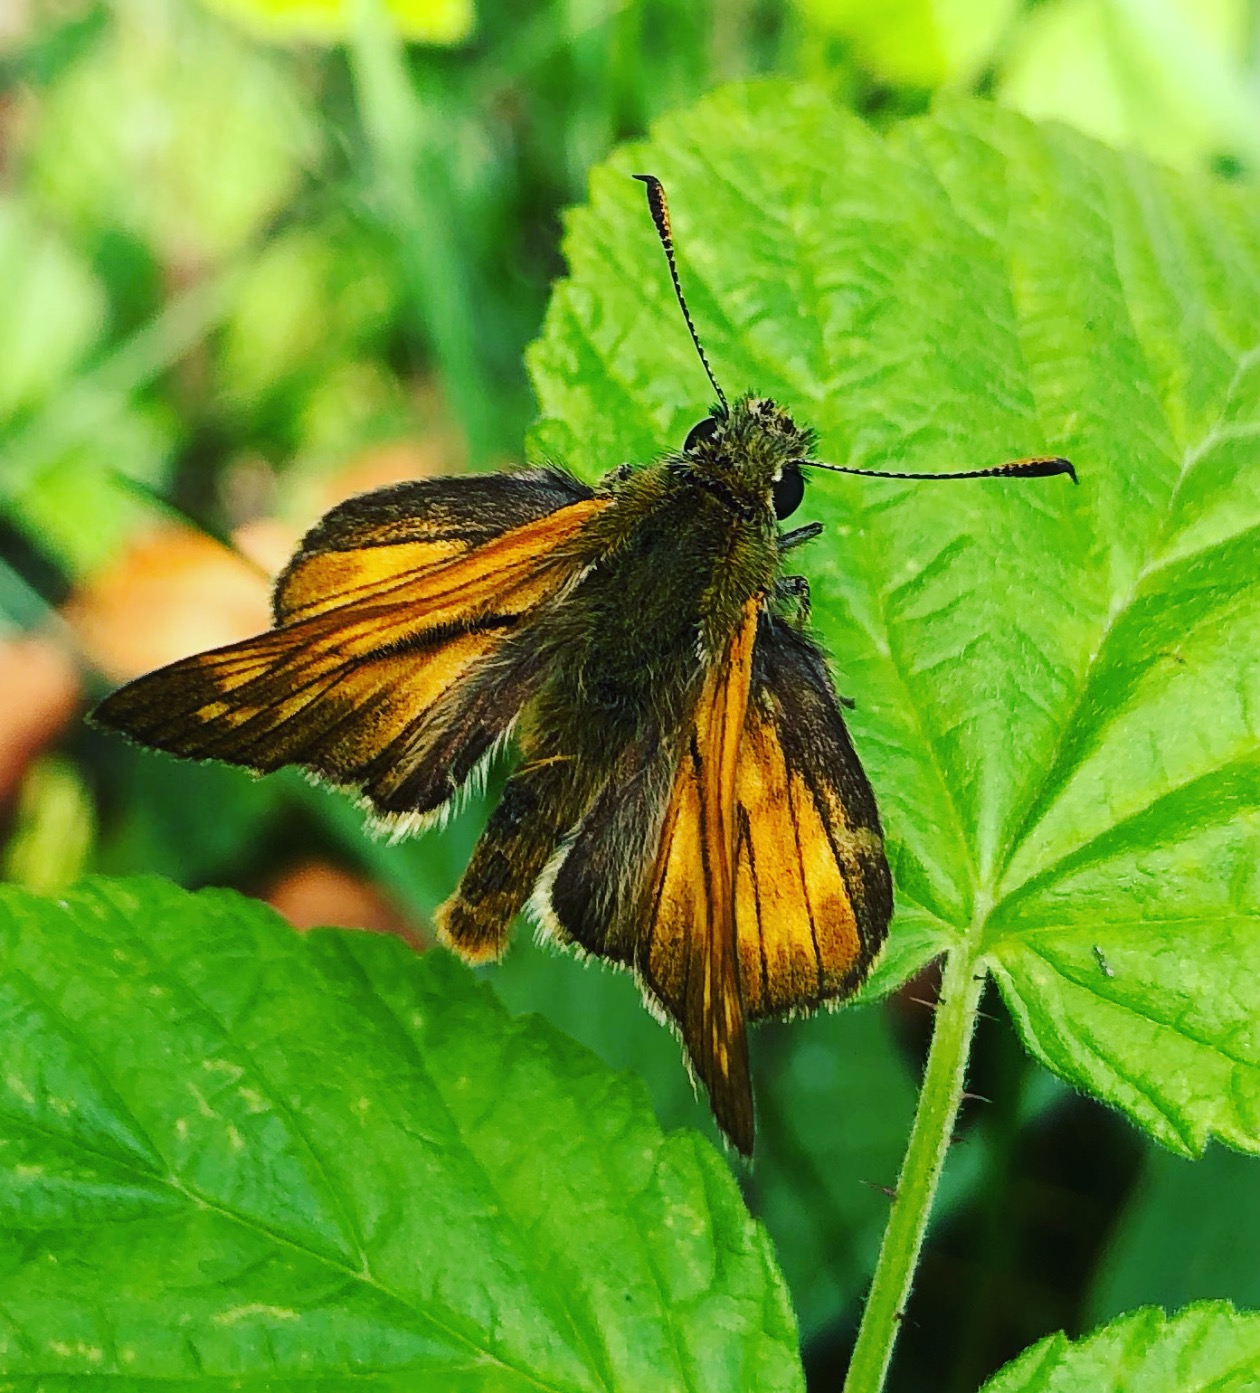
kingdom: Animalia
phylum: Arthropoda
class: Insecta
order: Lepidoptera
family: Hesperiidae
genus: Ochlodes
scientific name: Ochlodes venata
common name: Stor bredpande
